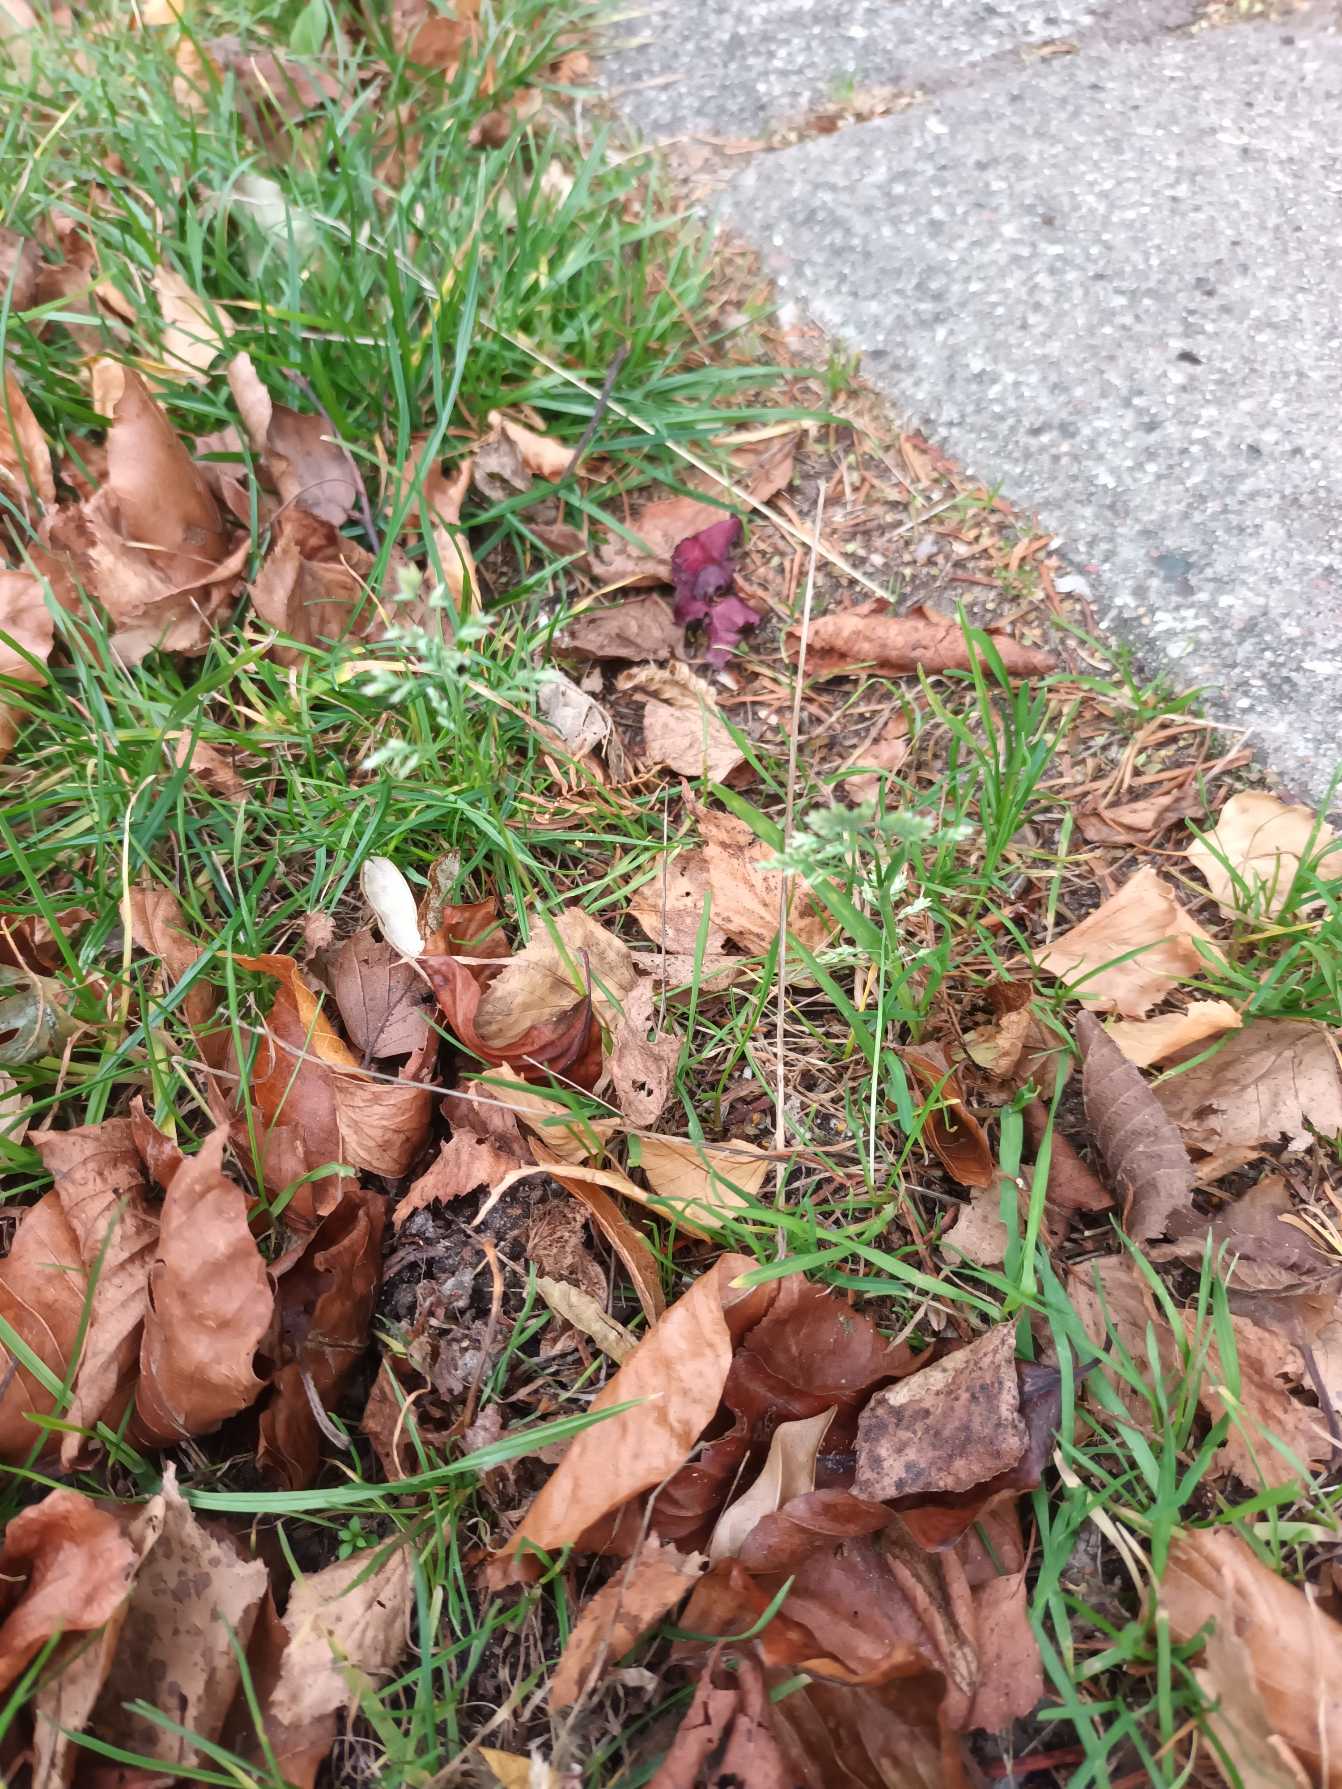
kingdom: Plantae
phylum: Tracheophyta
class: Liliopsida
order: Poales
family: Poaceae
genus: Poa
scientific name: Poa annua
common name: Enårig rapgræs
